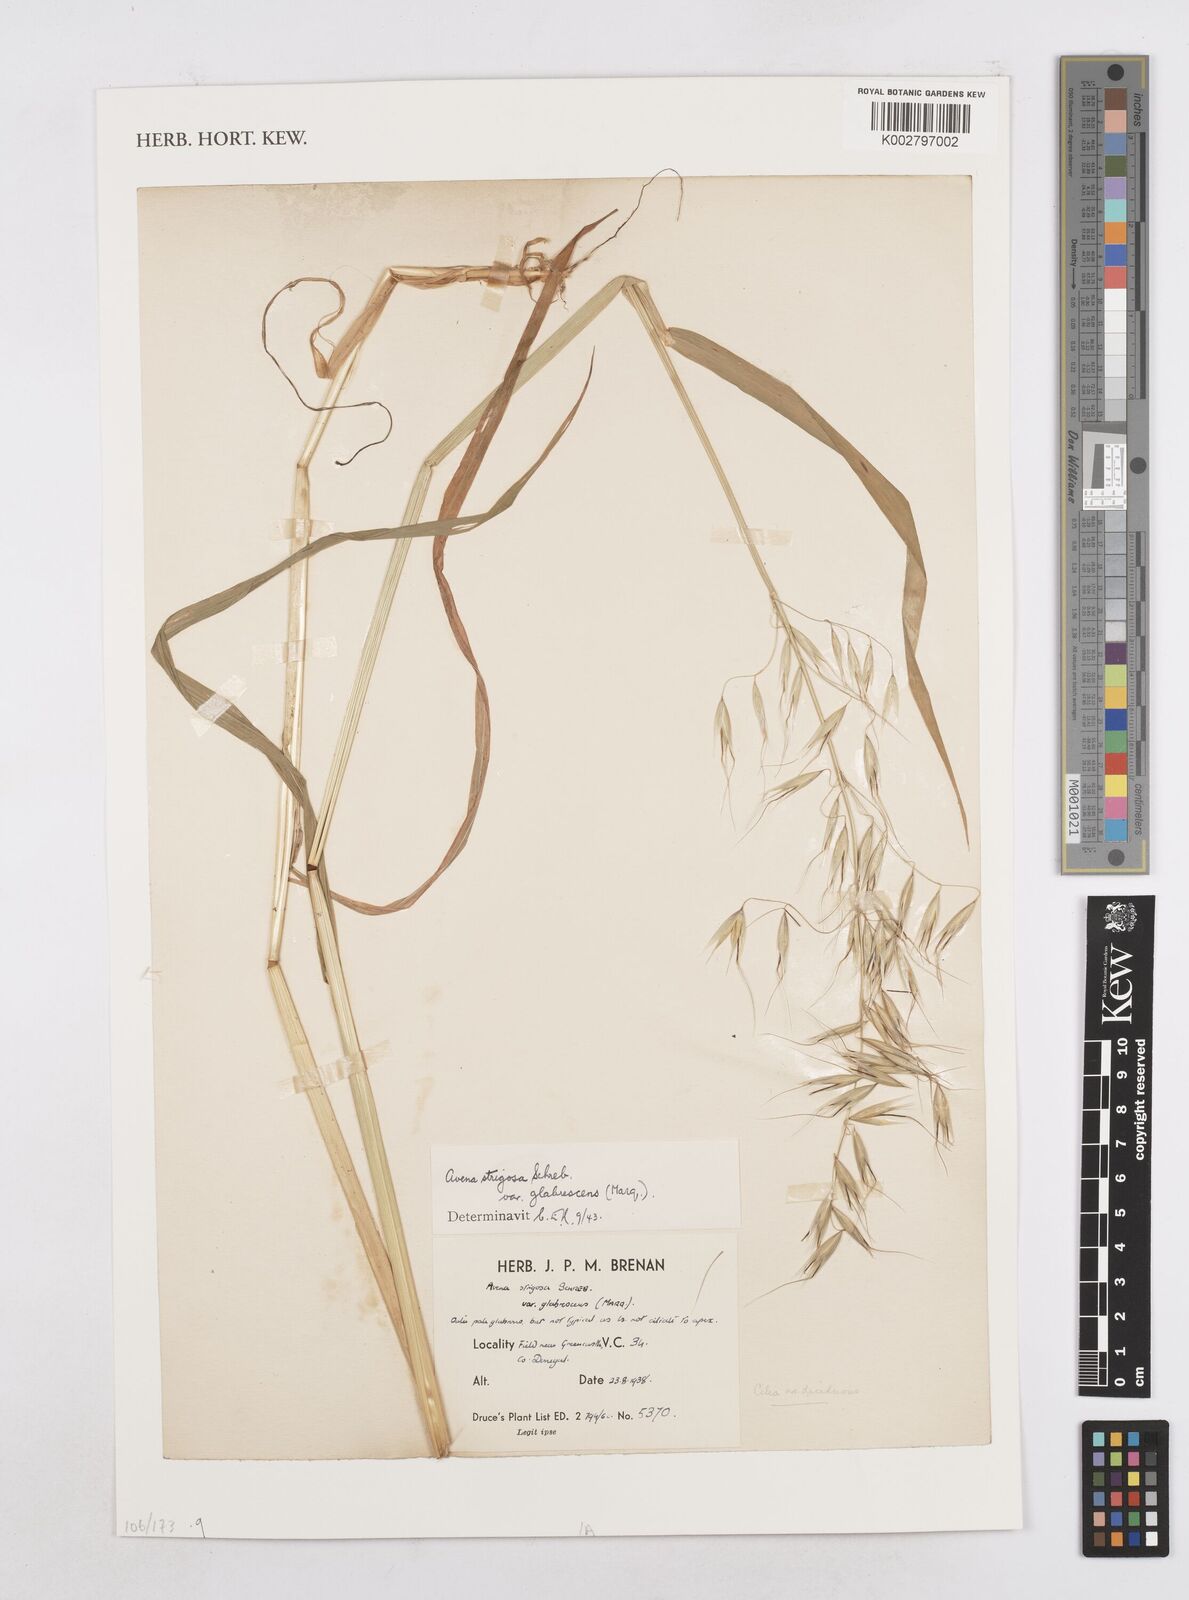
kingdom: Plantae
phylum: Tracheophyta
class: Liliopsida
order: Poales
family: Poaceae
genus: Avena
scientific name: Avena strigosa
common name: Bristle oat
